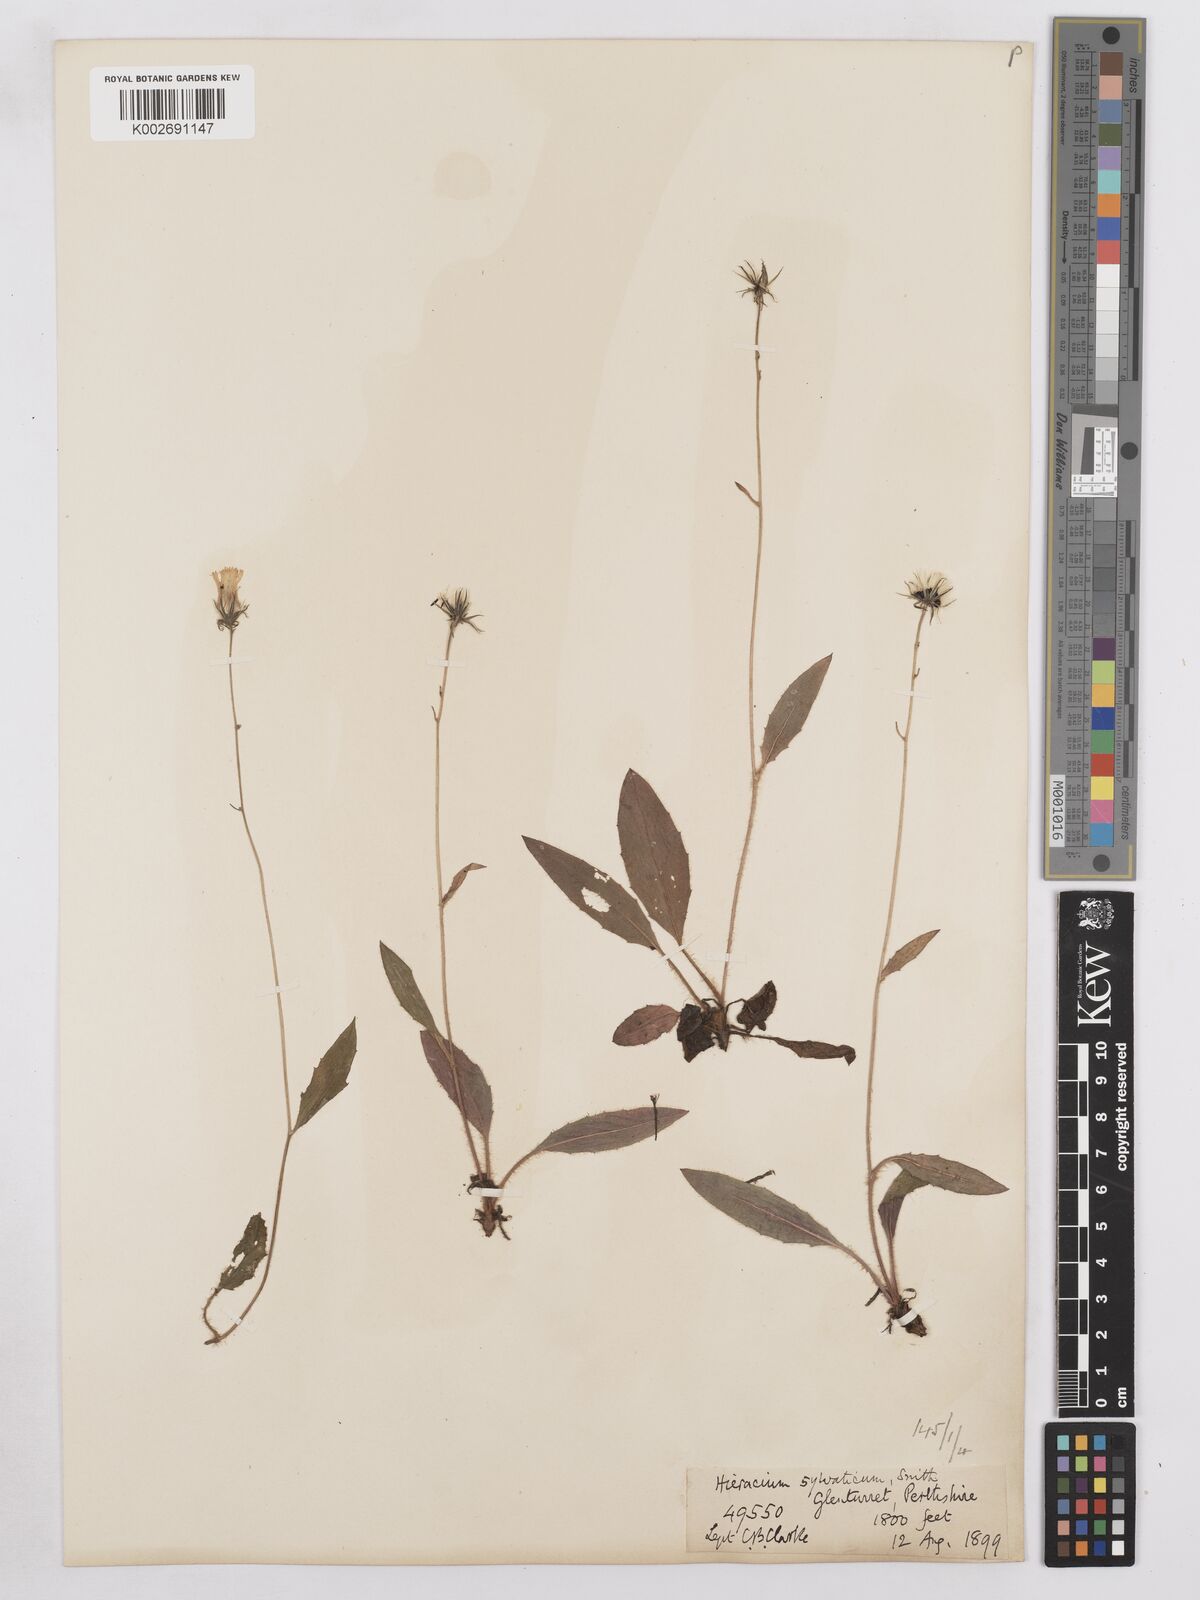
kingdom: Plantae
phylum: Tracheophyta
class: Magnoliopsida
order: Asterales
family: Asteraceae
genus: Hieracium
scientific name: Hieracium lachenalii
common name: Common hawkweed
